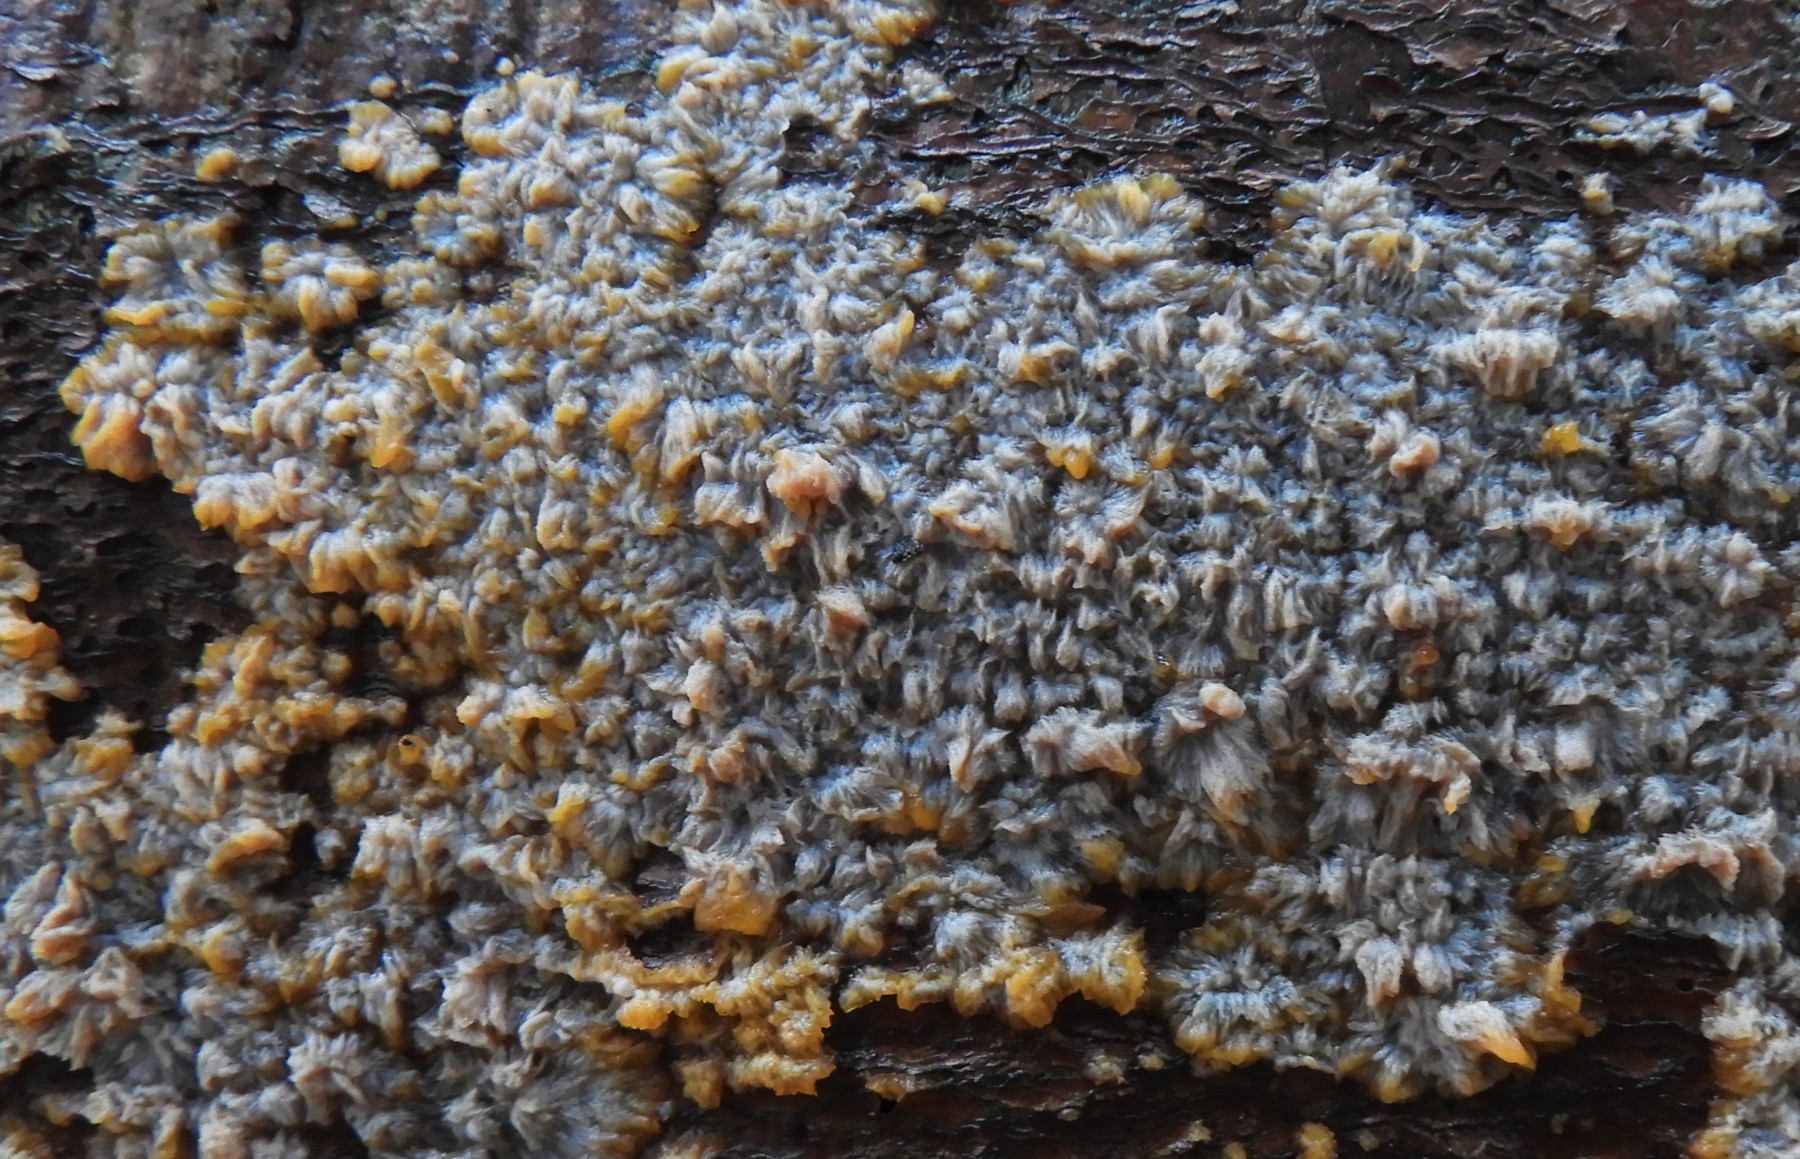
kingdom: Fungi
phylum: Basidiomycota
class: Agaricomycetes
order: Polyporales
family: Meruliaceae
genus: Phlebia
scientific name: Phlebia radiata
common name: stråle-åresvamp
